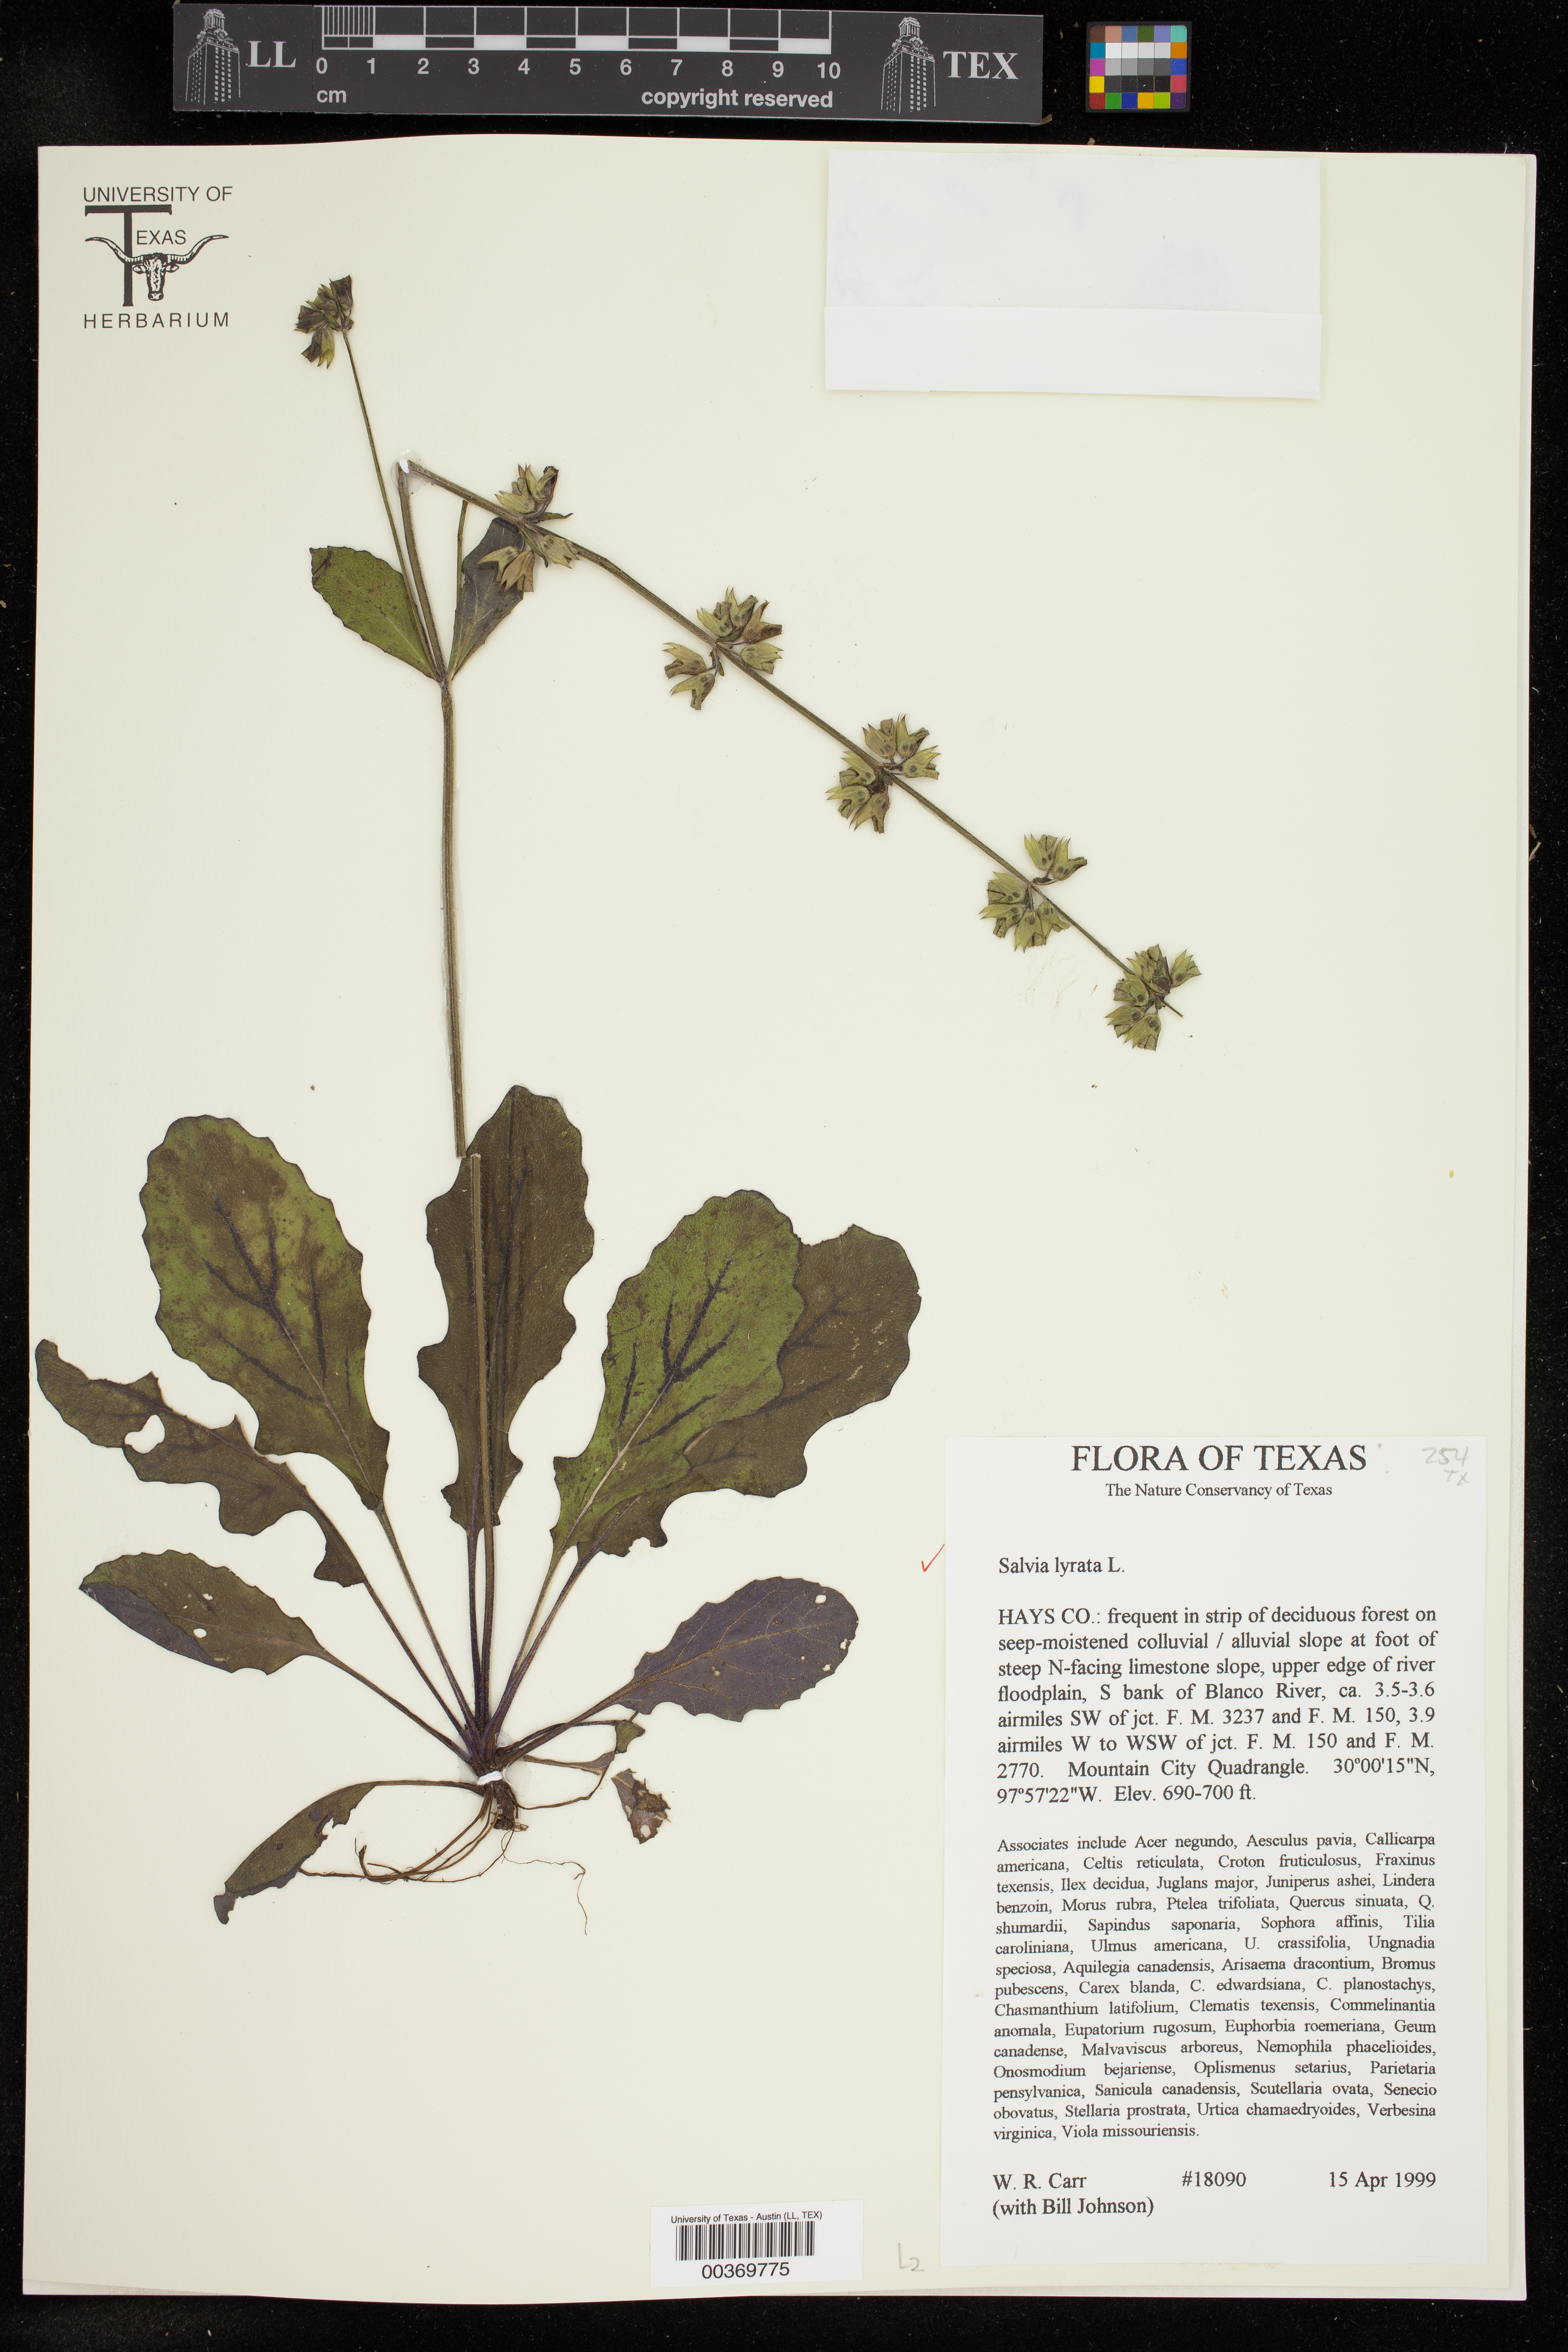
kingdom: Plantae
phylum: Tracheophyta
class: Magnoliopsida
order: Lamiales
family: Lamiaceae
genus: Salvia
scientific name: Salvia lyrata
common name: Cancerweed
